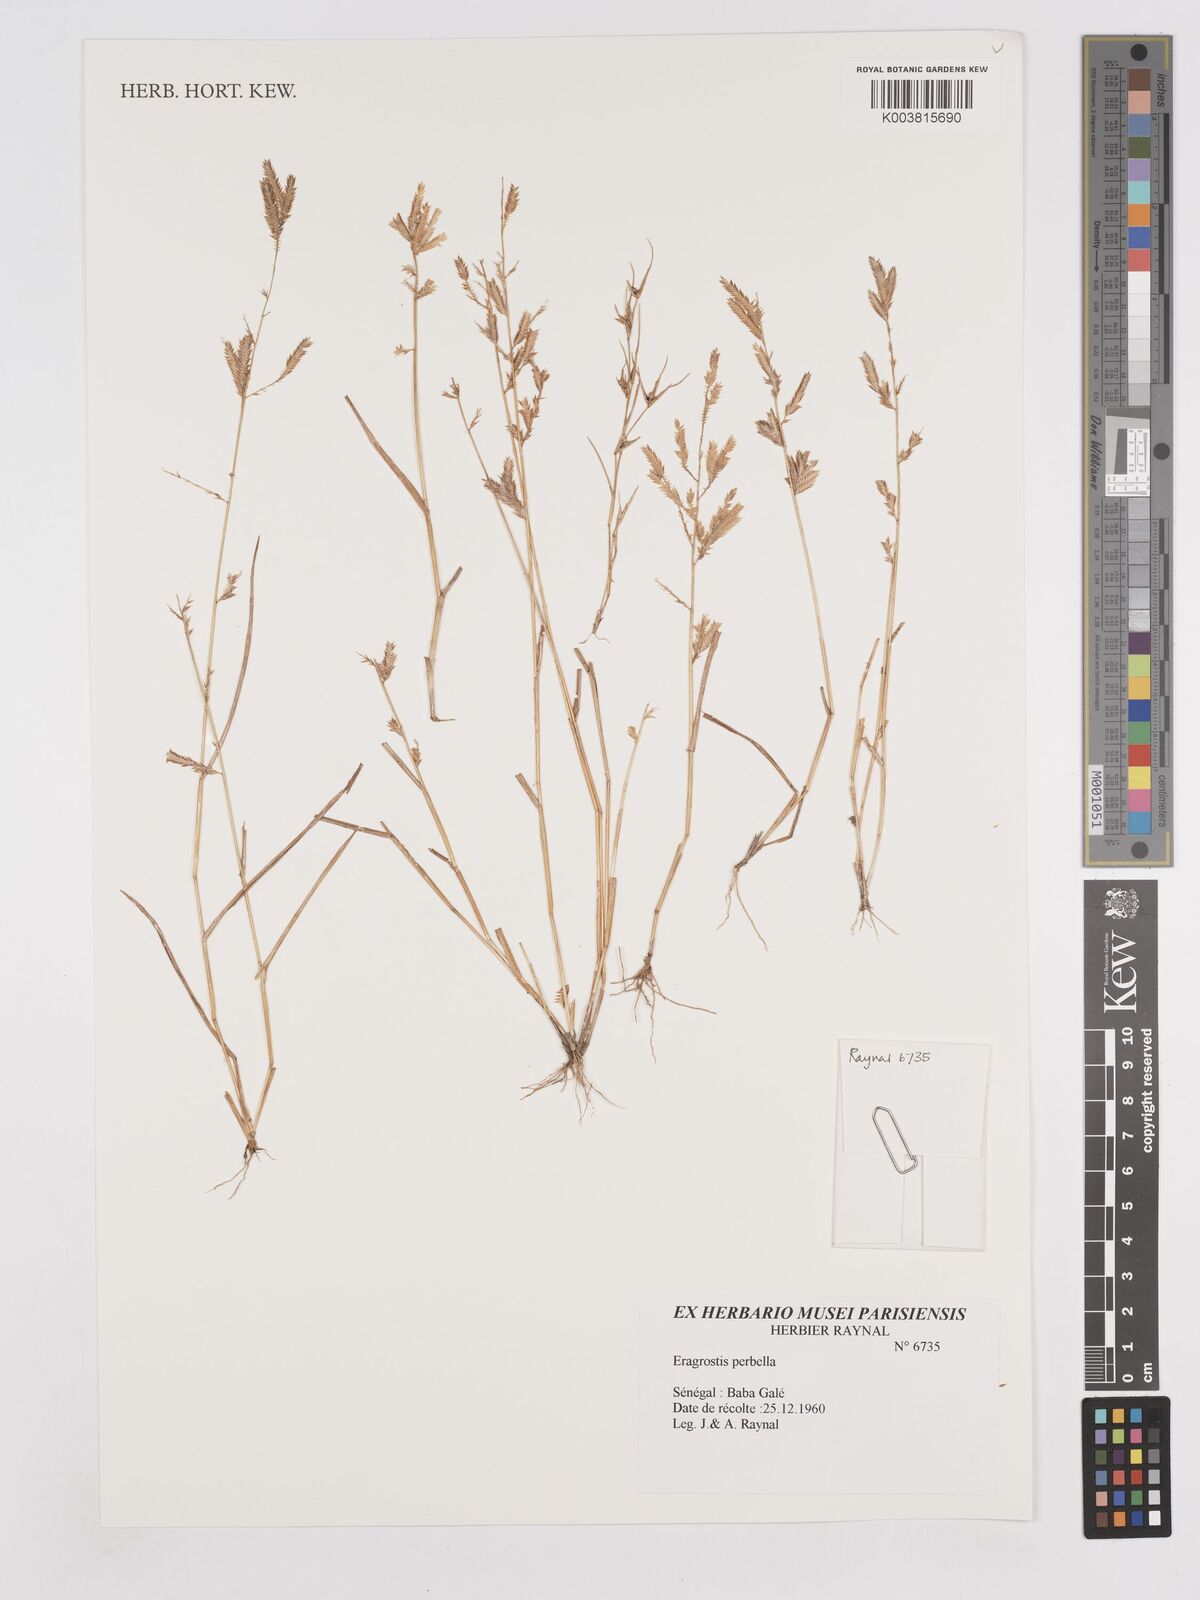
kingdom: Plantae
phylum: Tracheophyta
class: Liliopsida
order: Poales
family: Poaceae
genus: Eragrostis
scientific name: Eragrostis perbella
